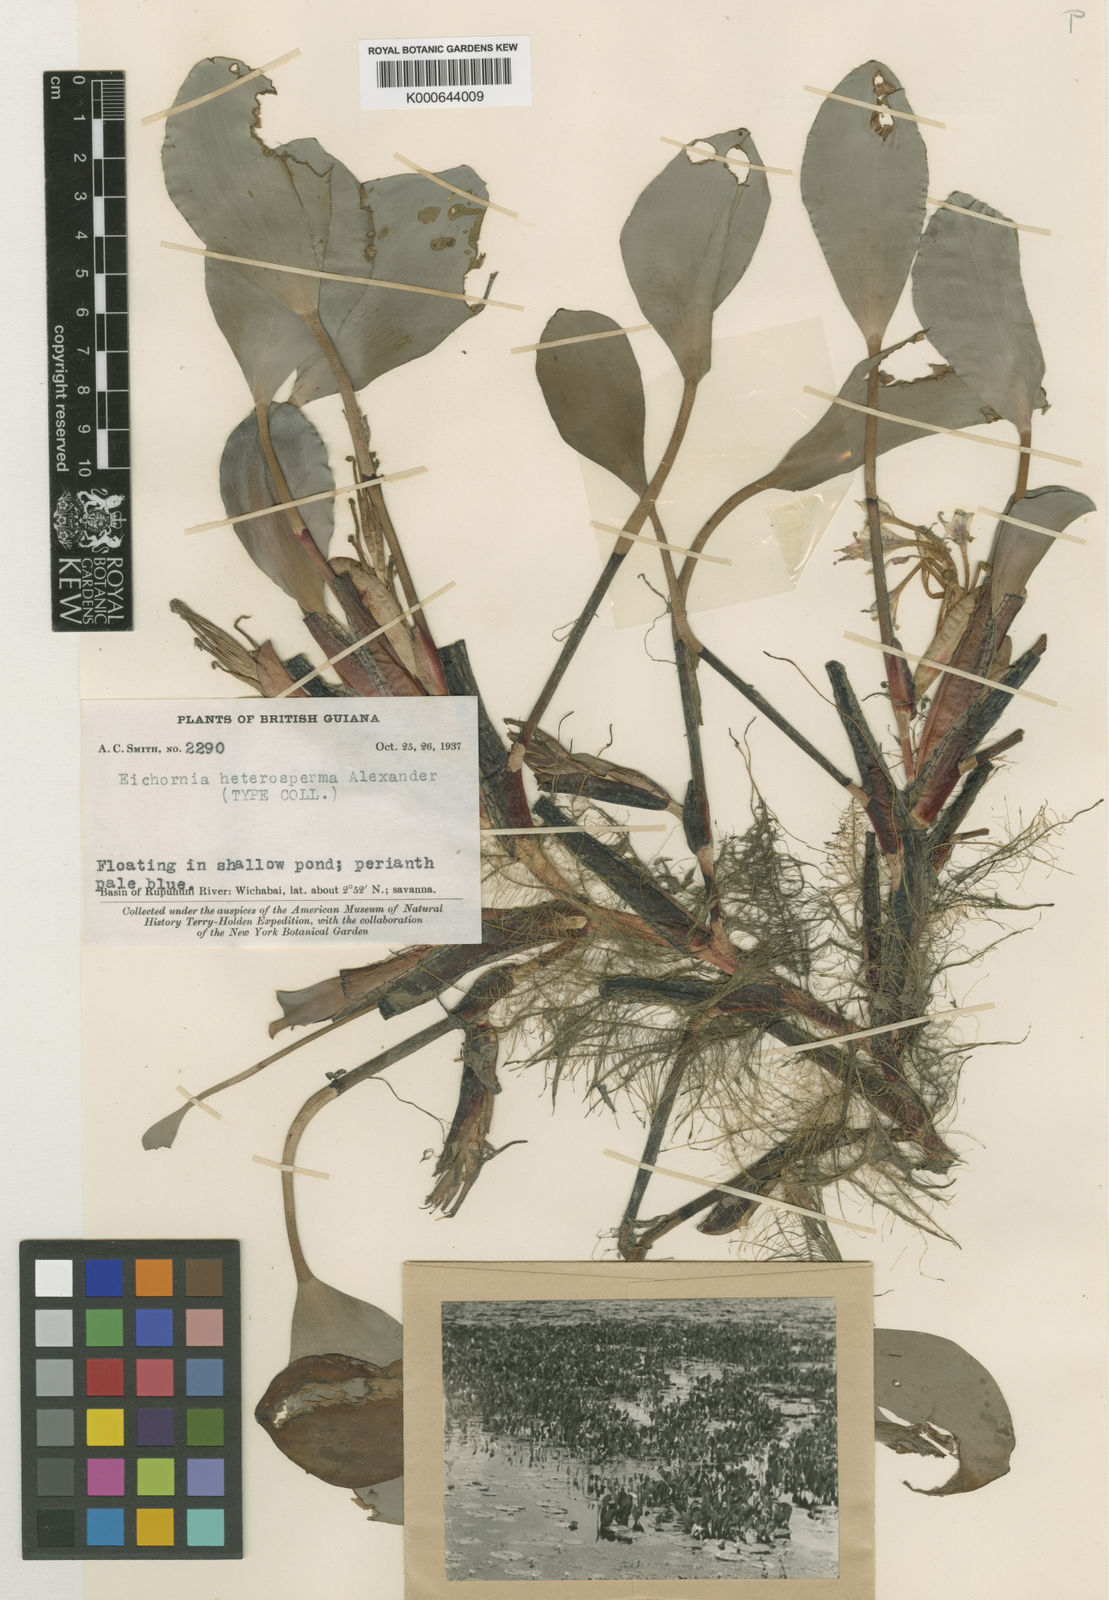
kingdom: Plantae
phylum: Tracheophyta
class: Liliopsida
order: Commelinales
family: Pontederiaceae
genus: Pontederia
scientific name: Pontederia heterosperma
